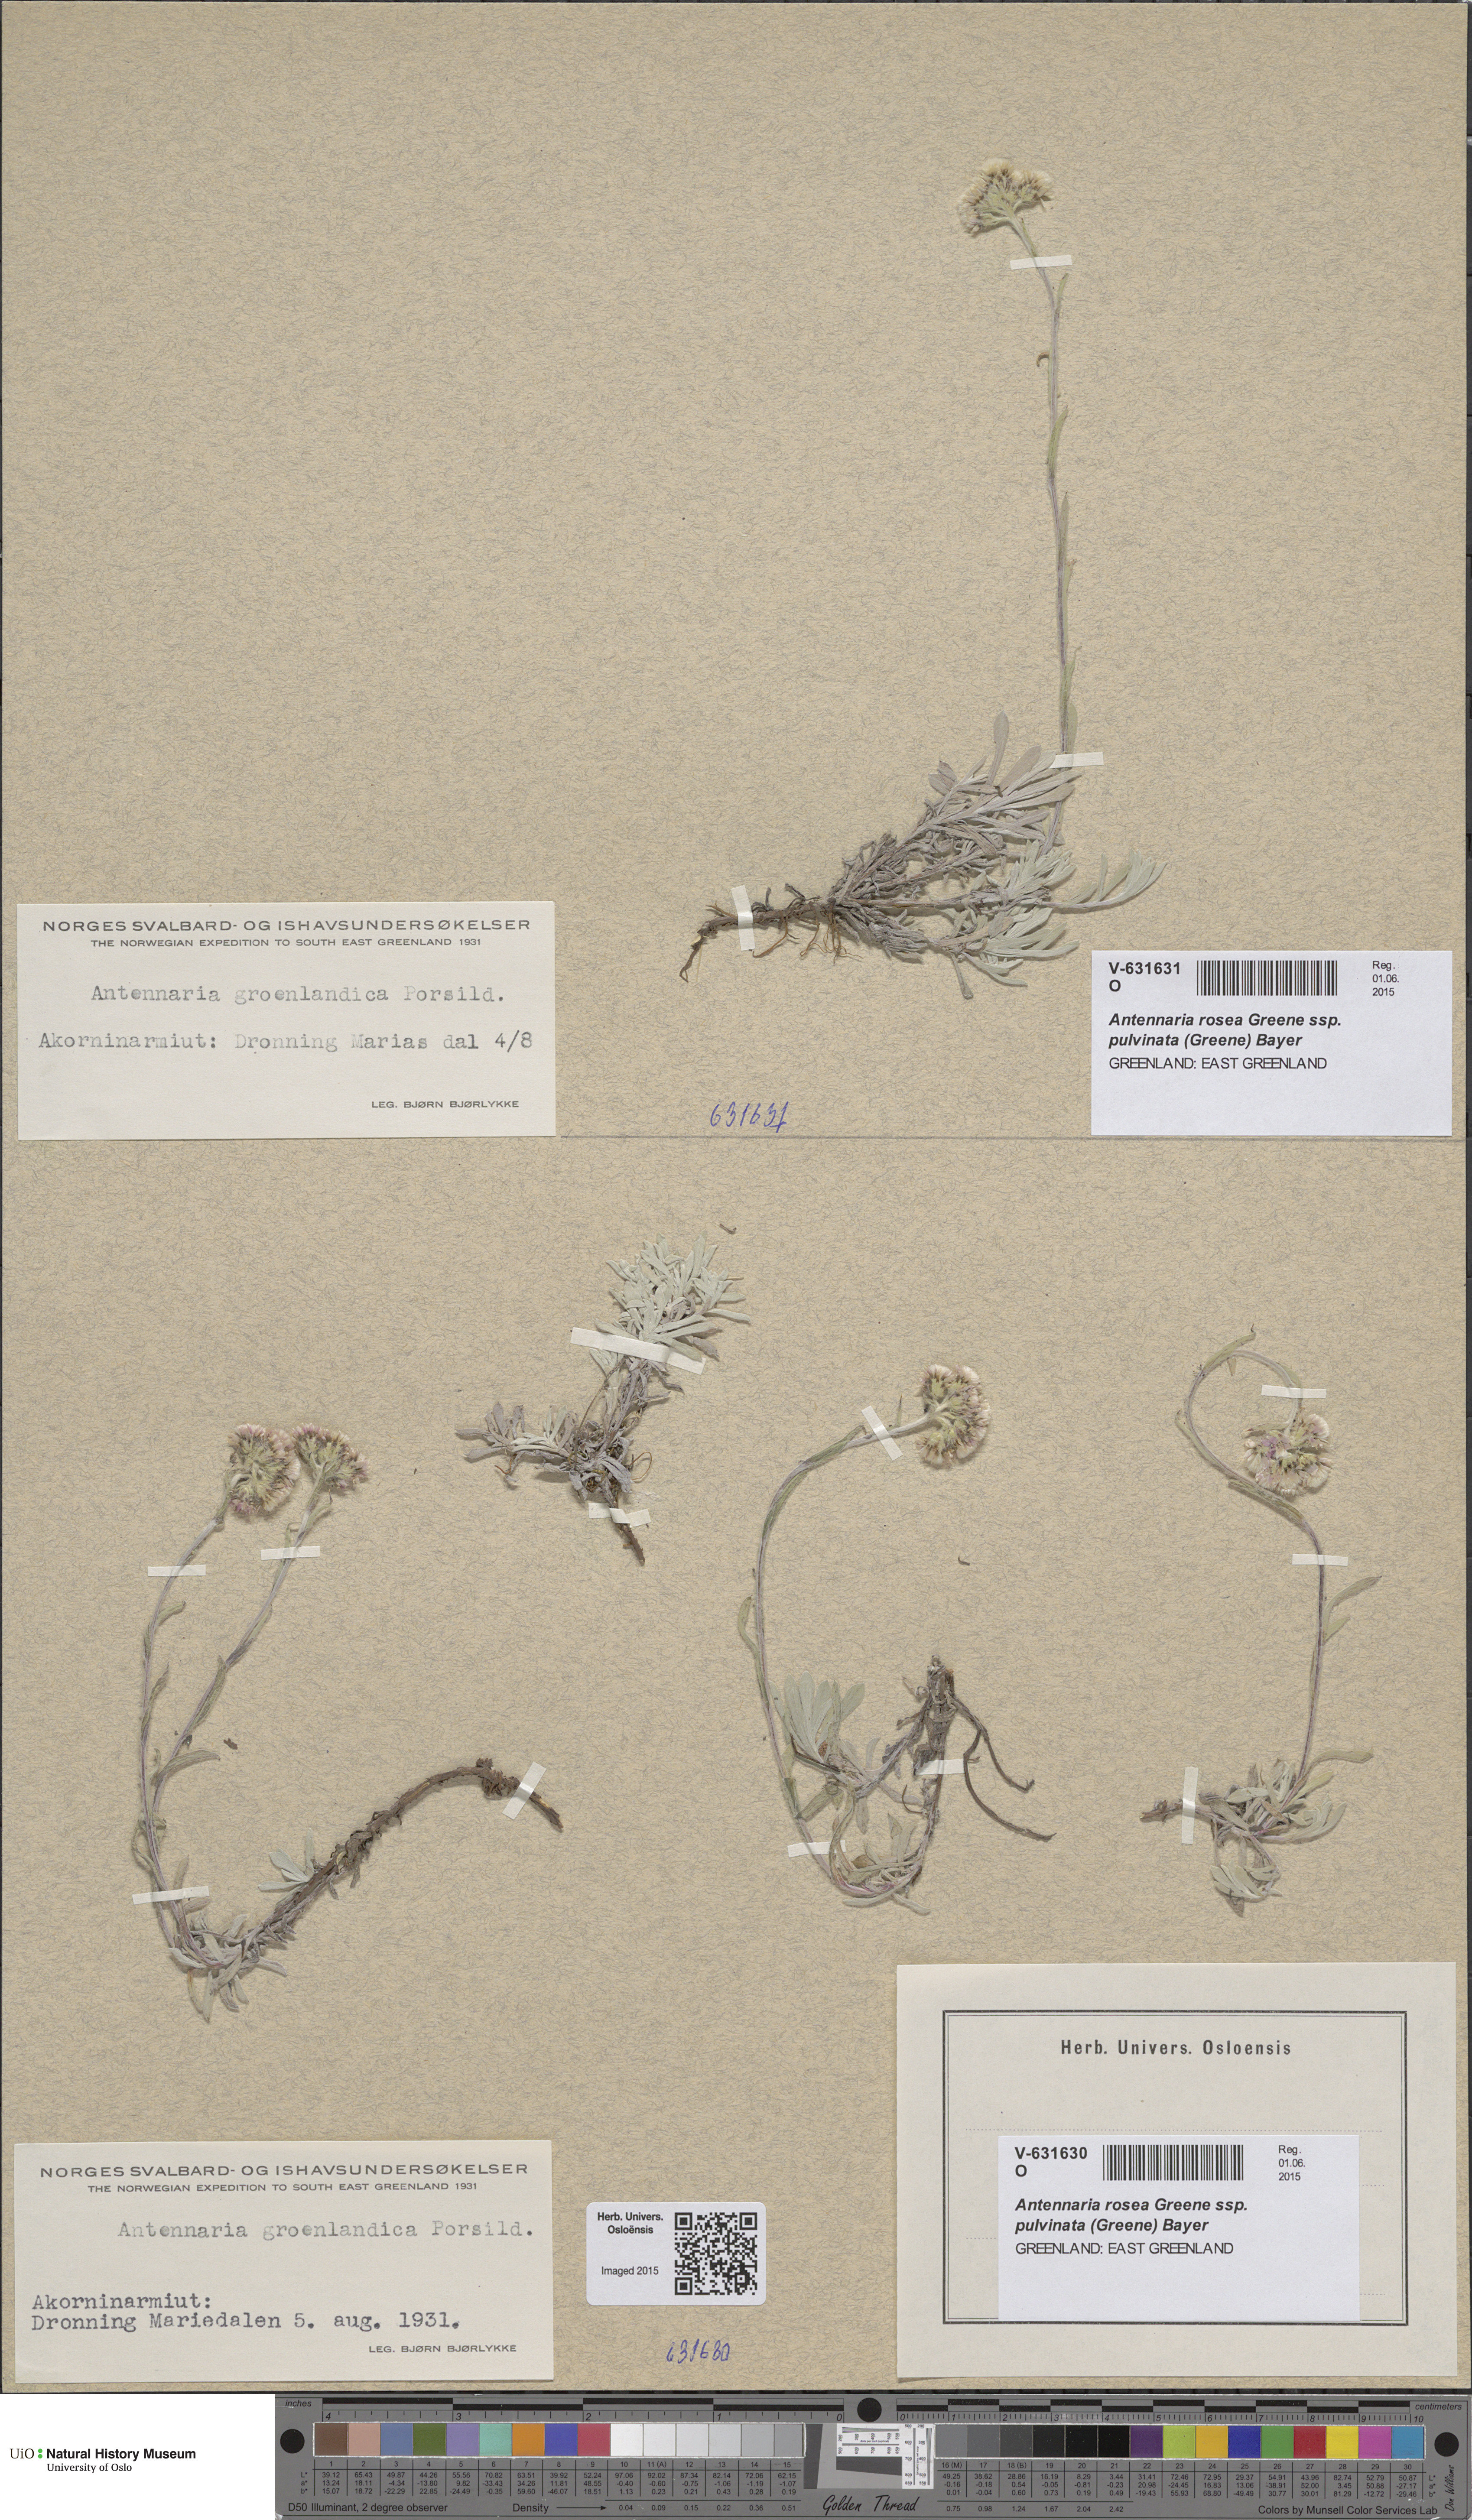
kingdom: Plantae
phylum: Tracheophyta
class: Magnoliopsida
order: Asterales
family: Asteraceae
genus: Antennaria
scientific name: Antennaria rosea
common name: Rosy pussytoes
